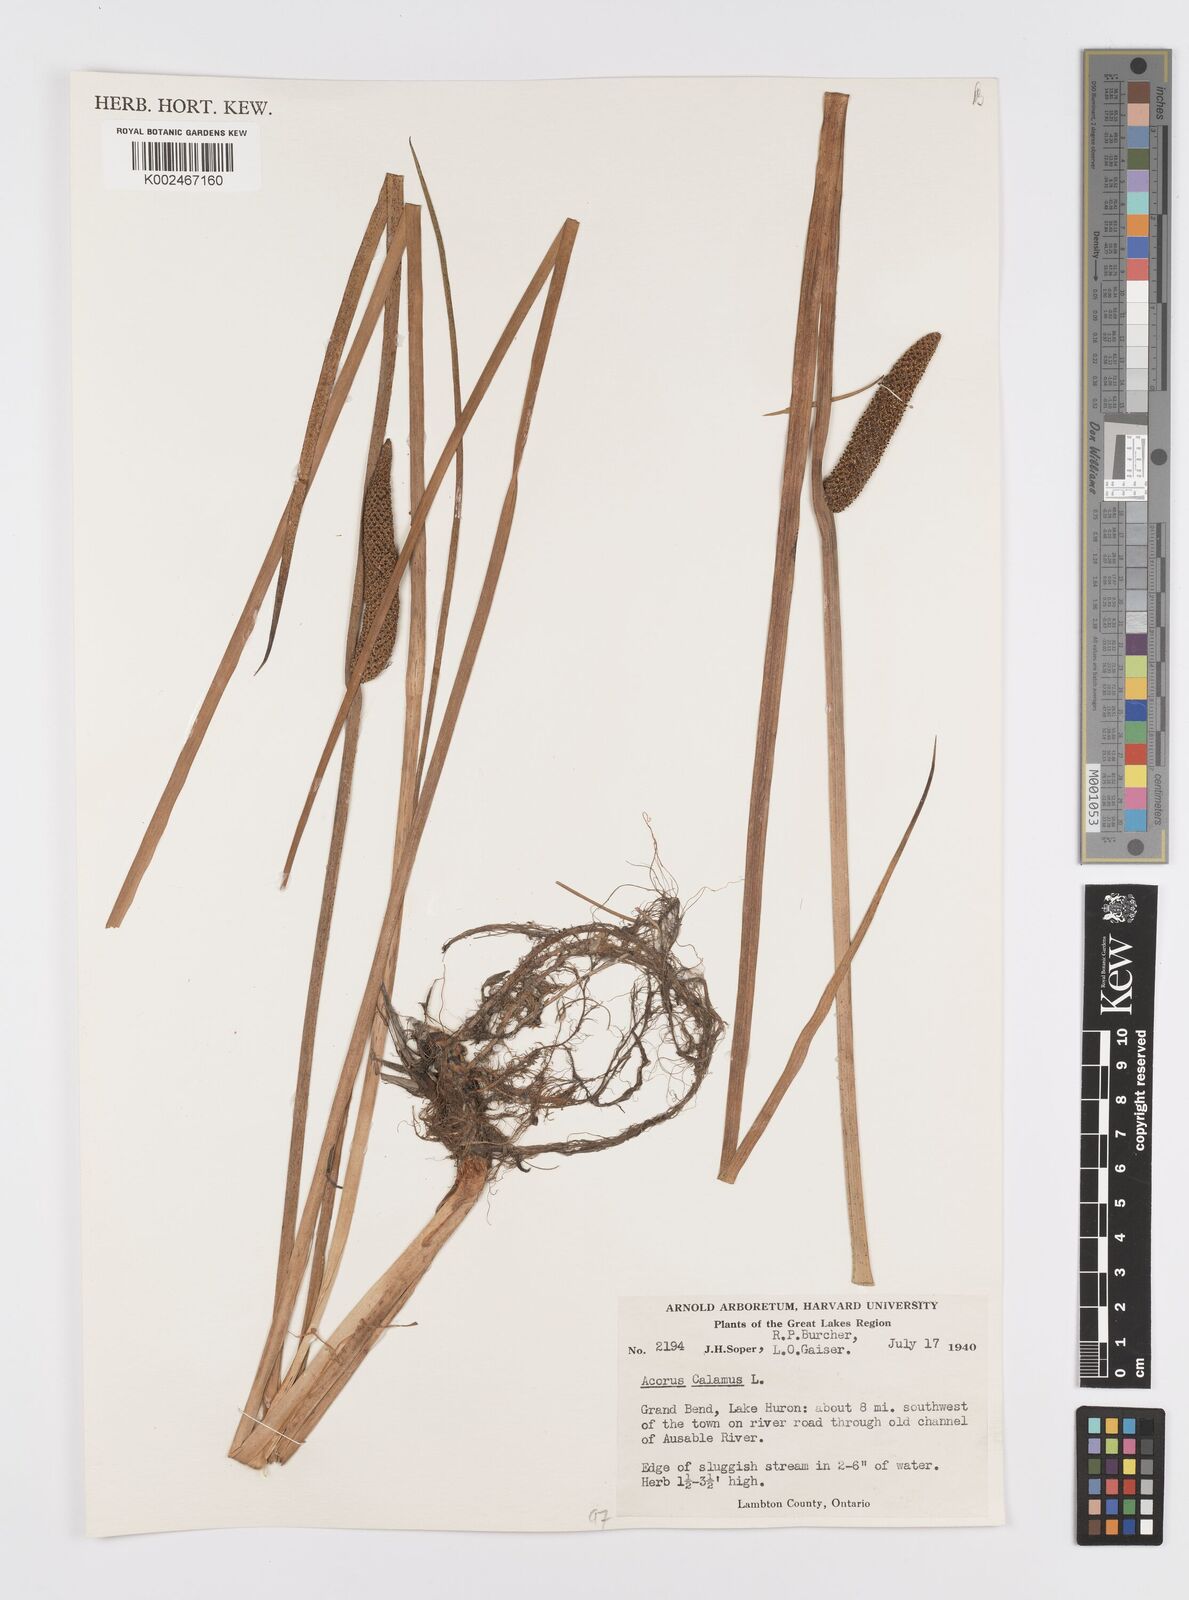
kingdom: Plantae
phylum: Tracheophyta
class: Liliopsida
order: Acorales
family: Acoraceae
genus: Acorus
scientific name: Acorus calamus
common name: Sweet-flag
